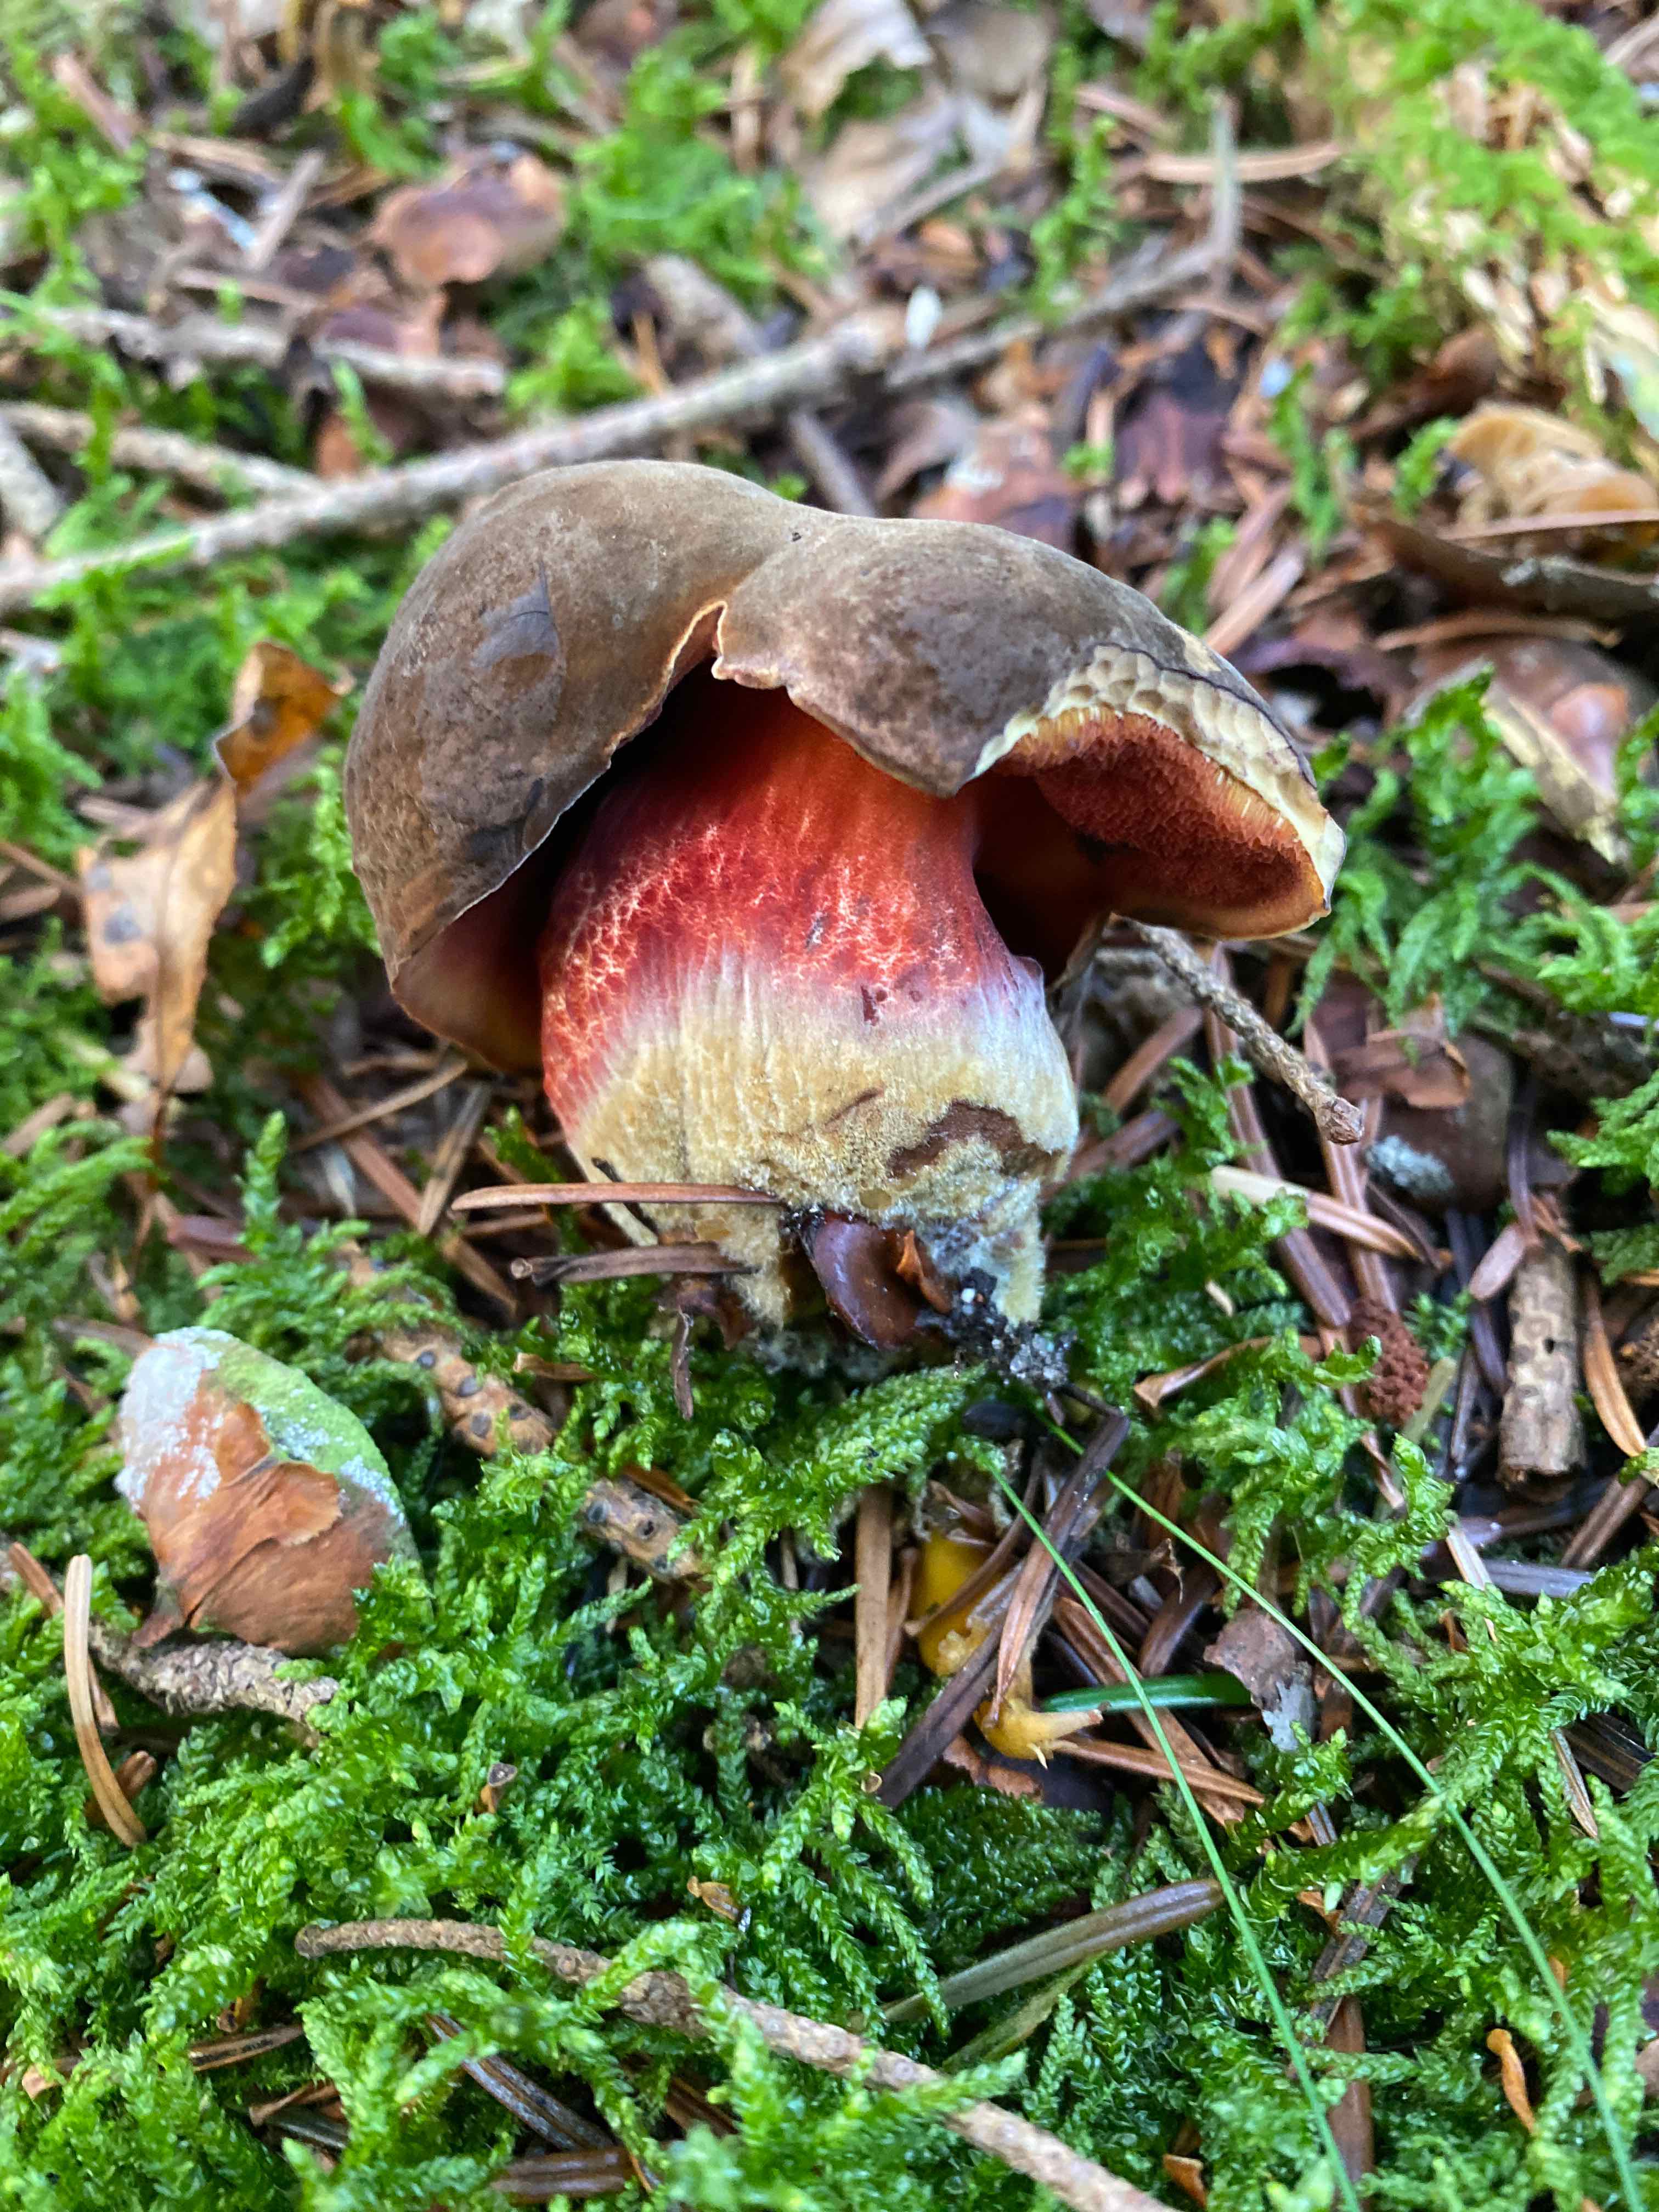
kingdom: Fungi
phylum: Basidiomycota
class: Agaricomycetes
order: Boletales
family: Boletaceae
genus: Neoboletus
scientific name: Neoboletus erythropus
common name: punktstokket indigorørhat
